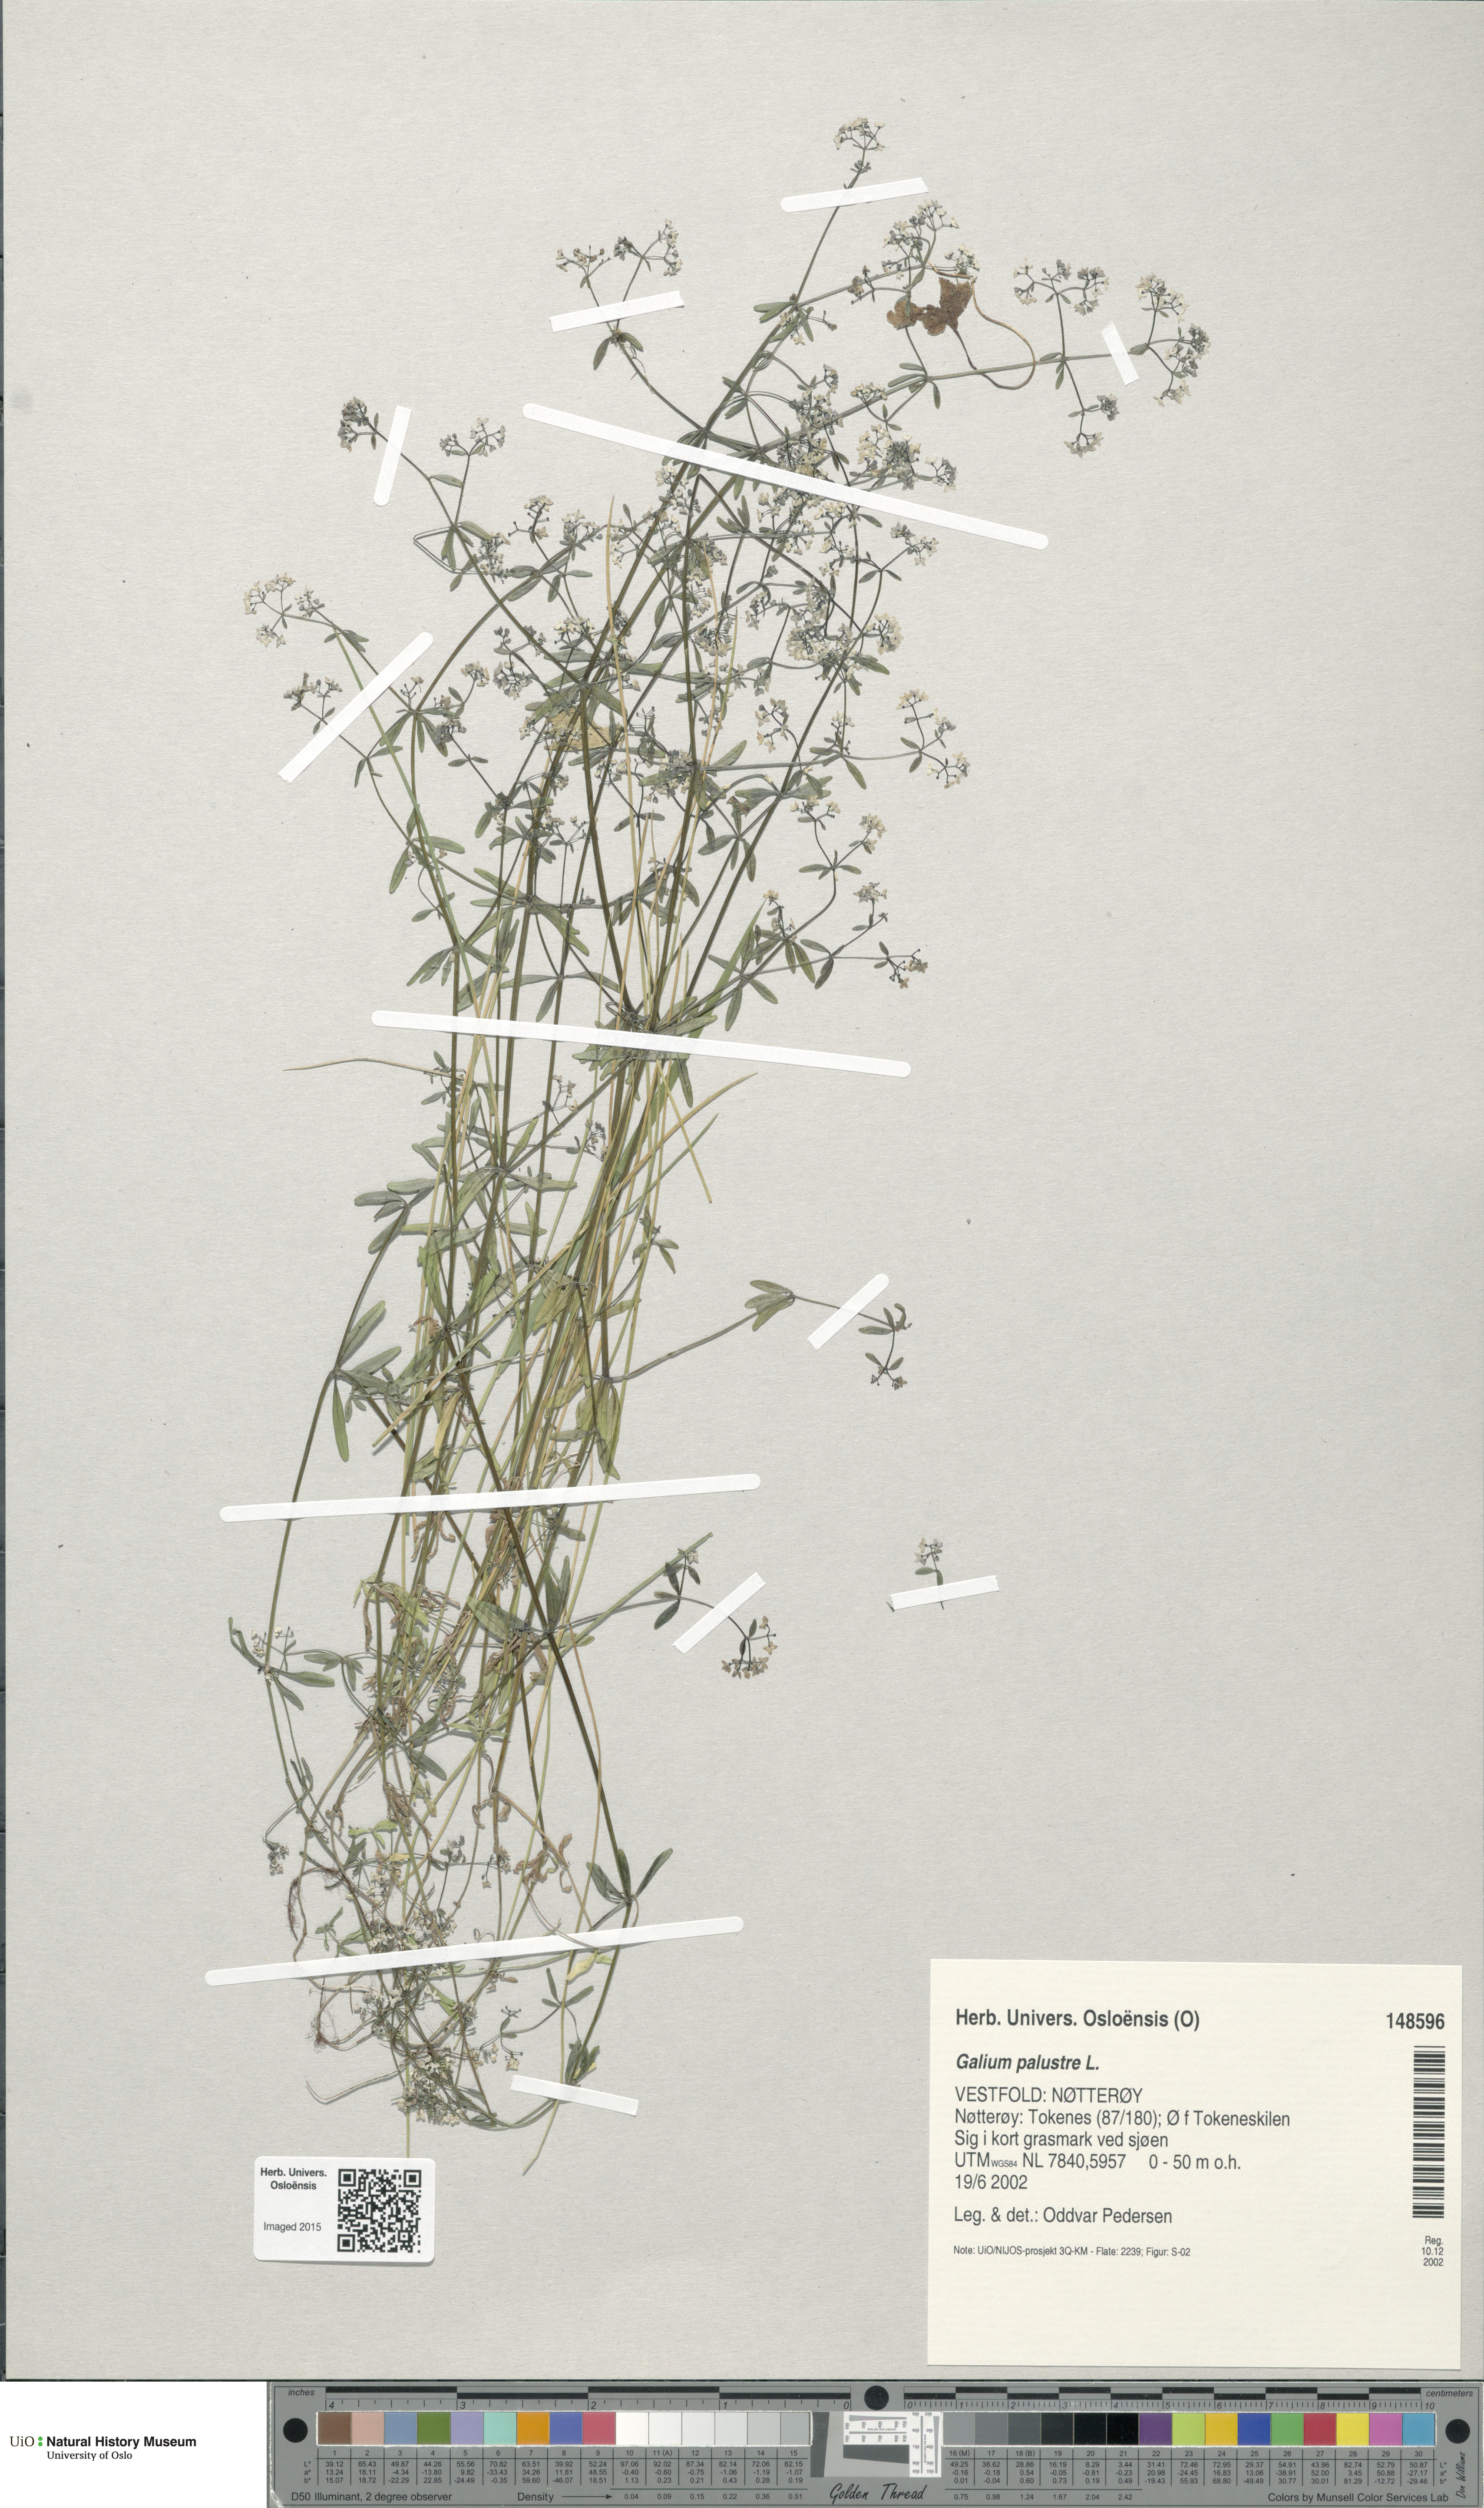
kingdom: Plantae
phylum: Tracheophyta
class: Magnoliopsida
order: Gentianales
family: Rubiaceae
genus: Galium
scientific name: Galium palustre
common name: Common marsh-bedstraw
